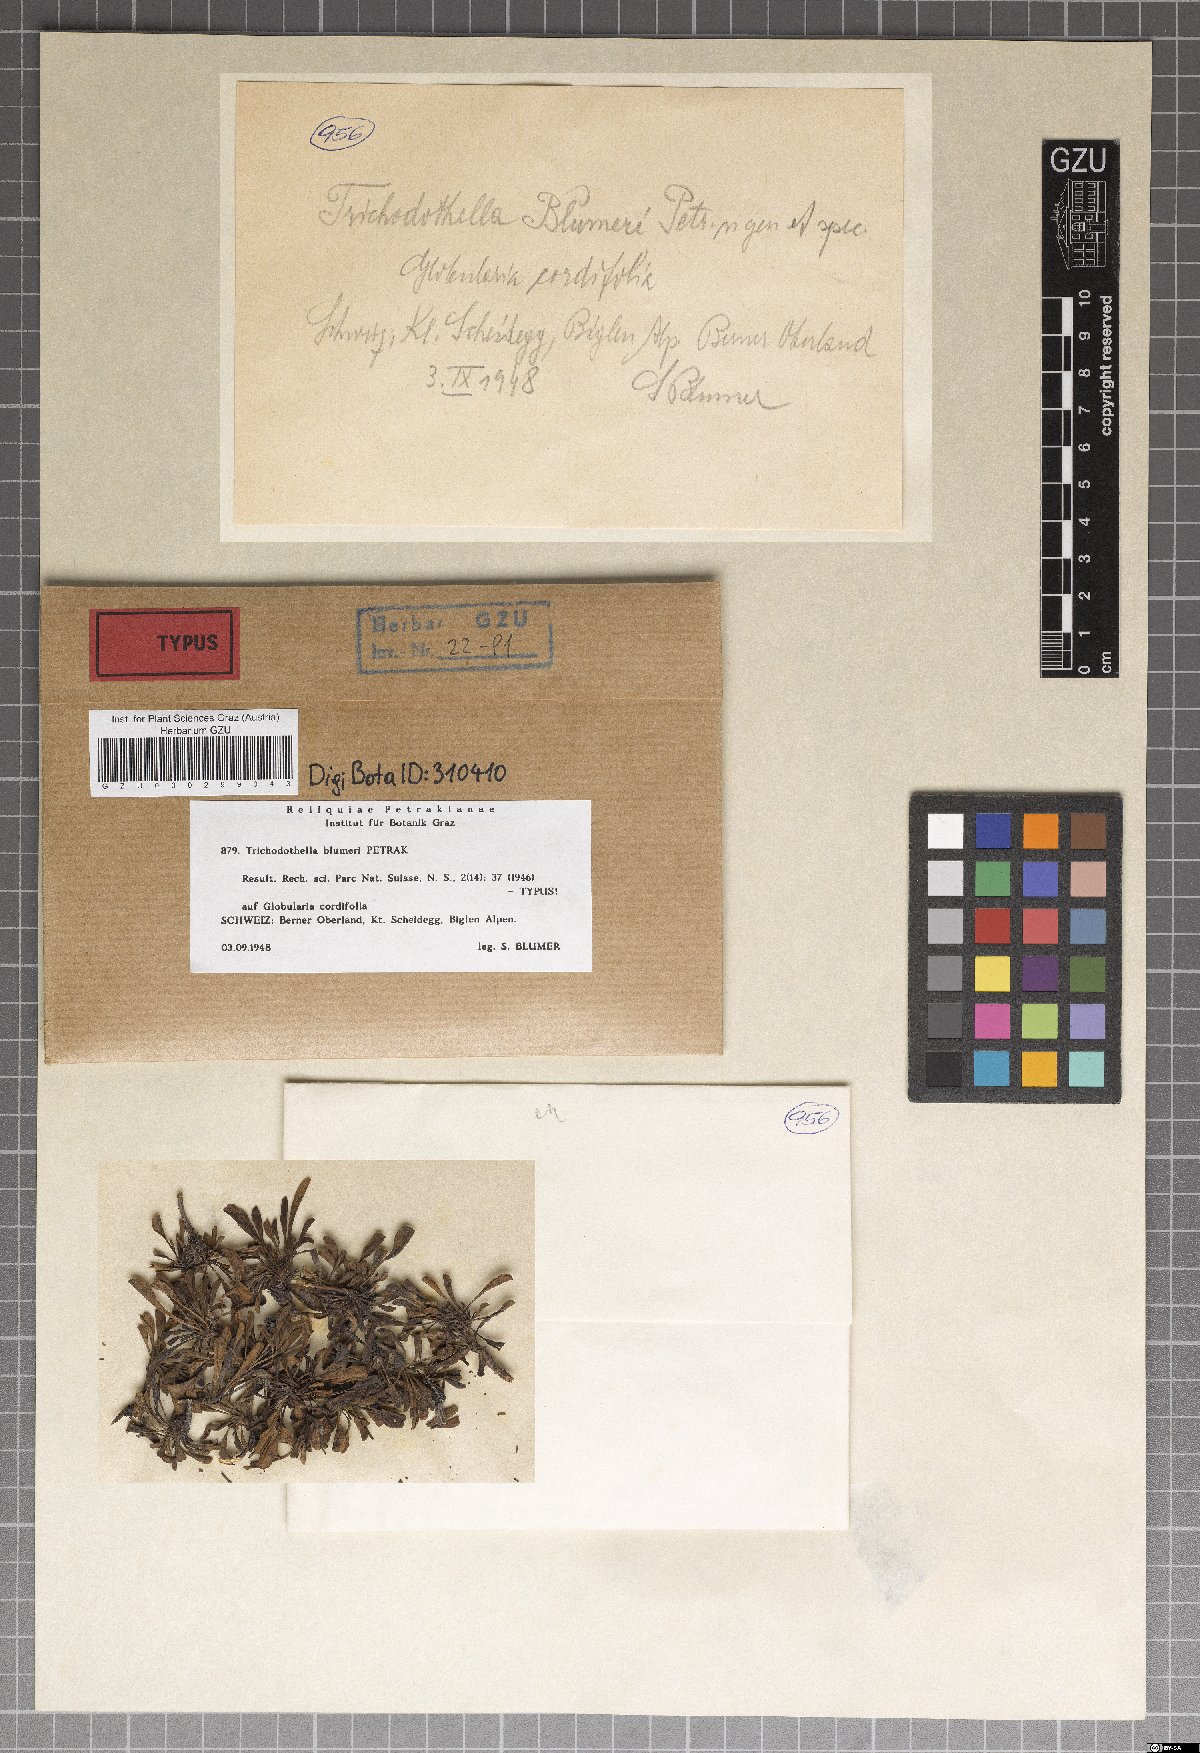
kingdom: Fungi
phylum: Ascomycota
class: Dothideomycetes
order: Venturiales
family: Venturiaceae
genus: Trichodothella
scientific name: Trichodothella blumeri
